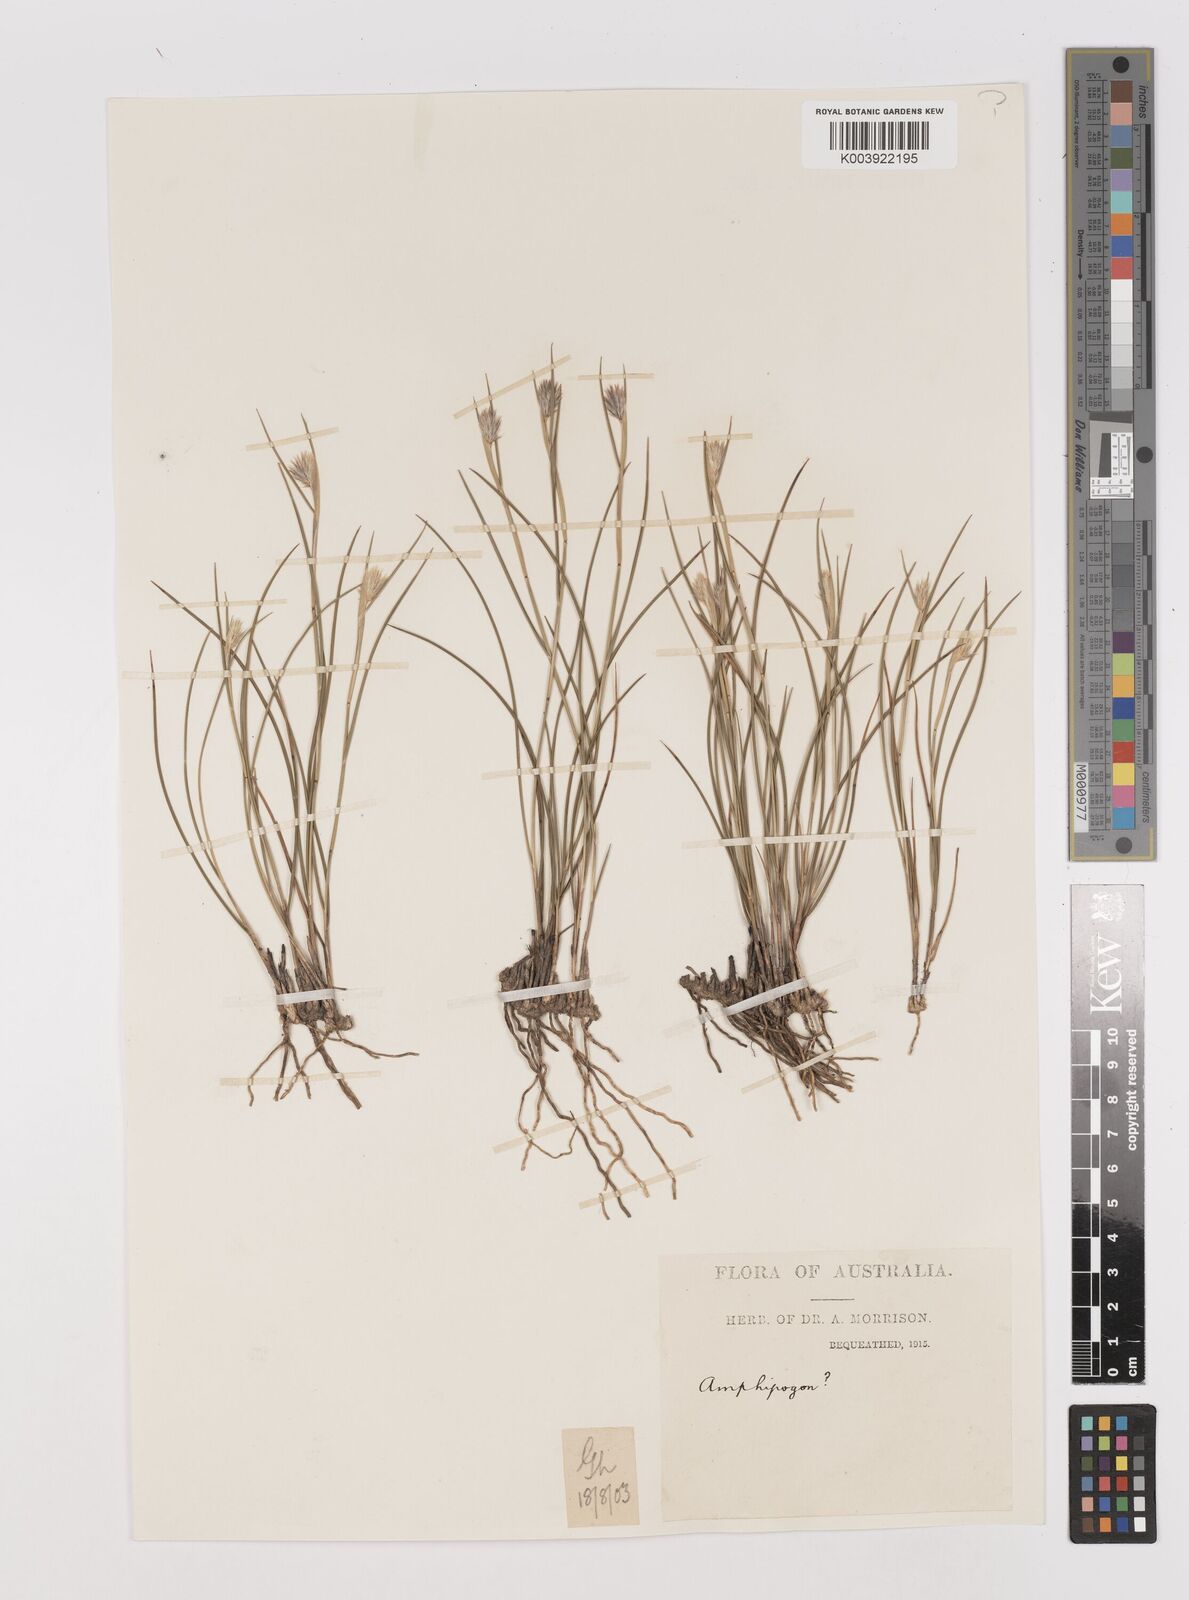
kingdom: Plantae
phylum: Tracheophyta
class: Liliopsida
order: Poales
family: Poaceae
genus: Neurachne
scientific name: Neurachne alopecuroidea
